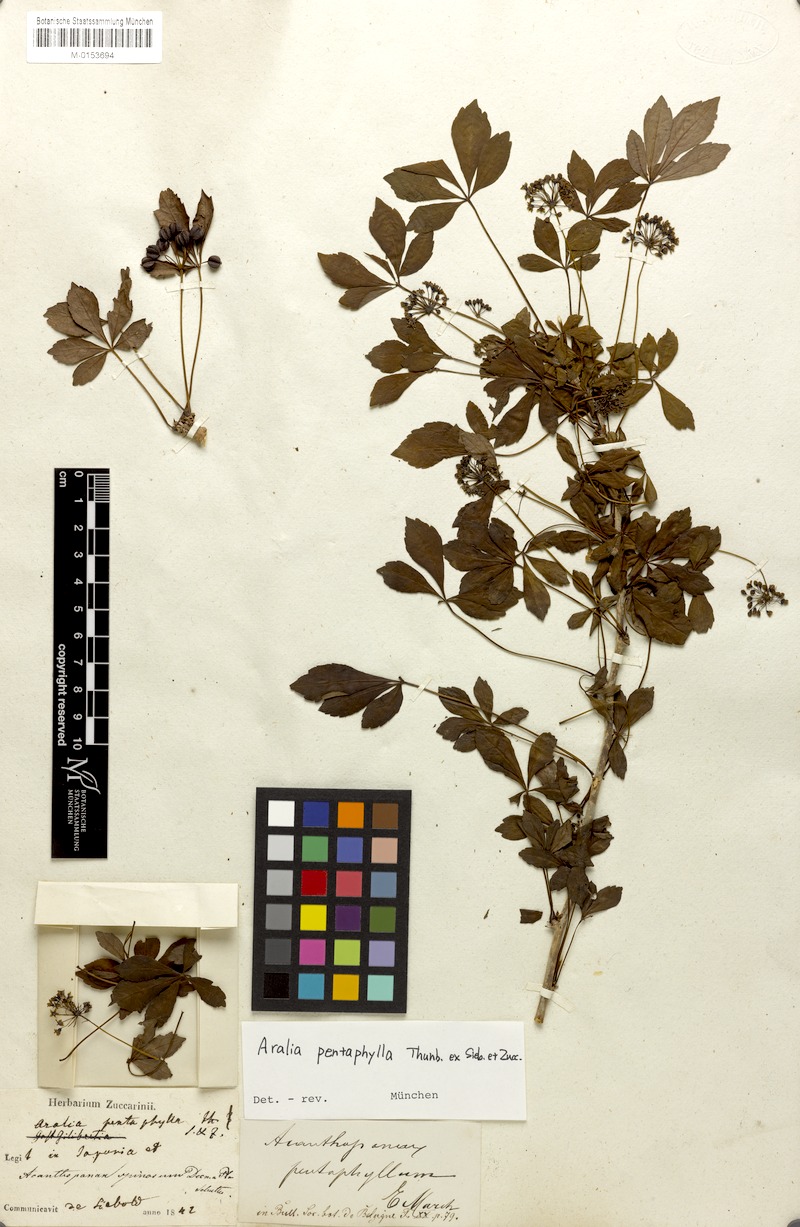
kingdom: Plantae
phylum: Tracheophyta
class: Magnoliopsida
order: Apiales
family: Araliaceae
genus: Eleutherococcus
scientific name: Eleutherococcus spinosus
